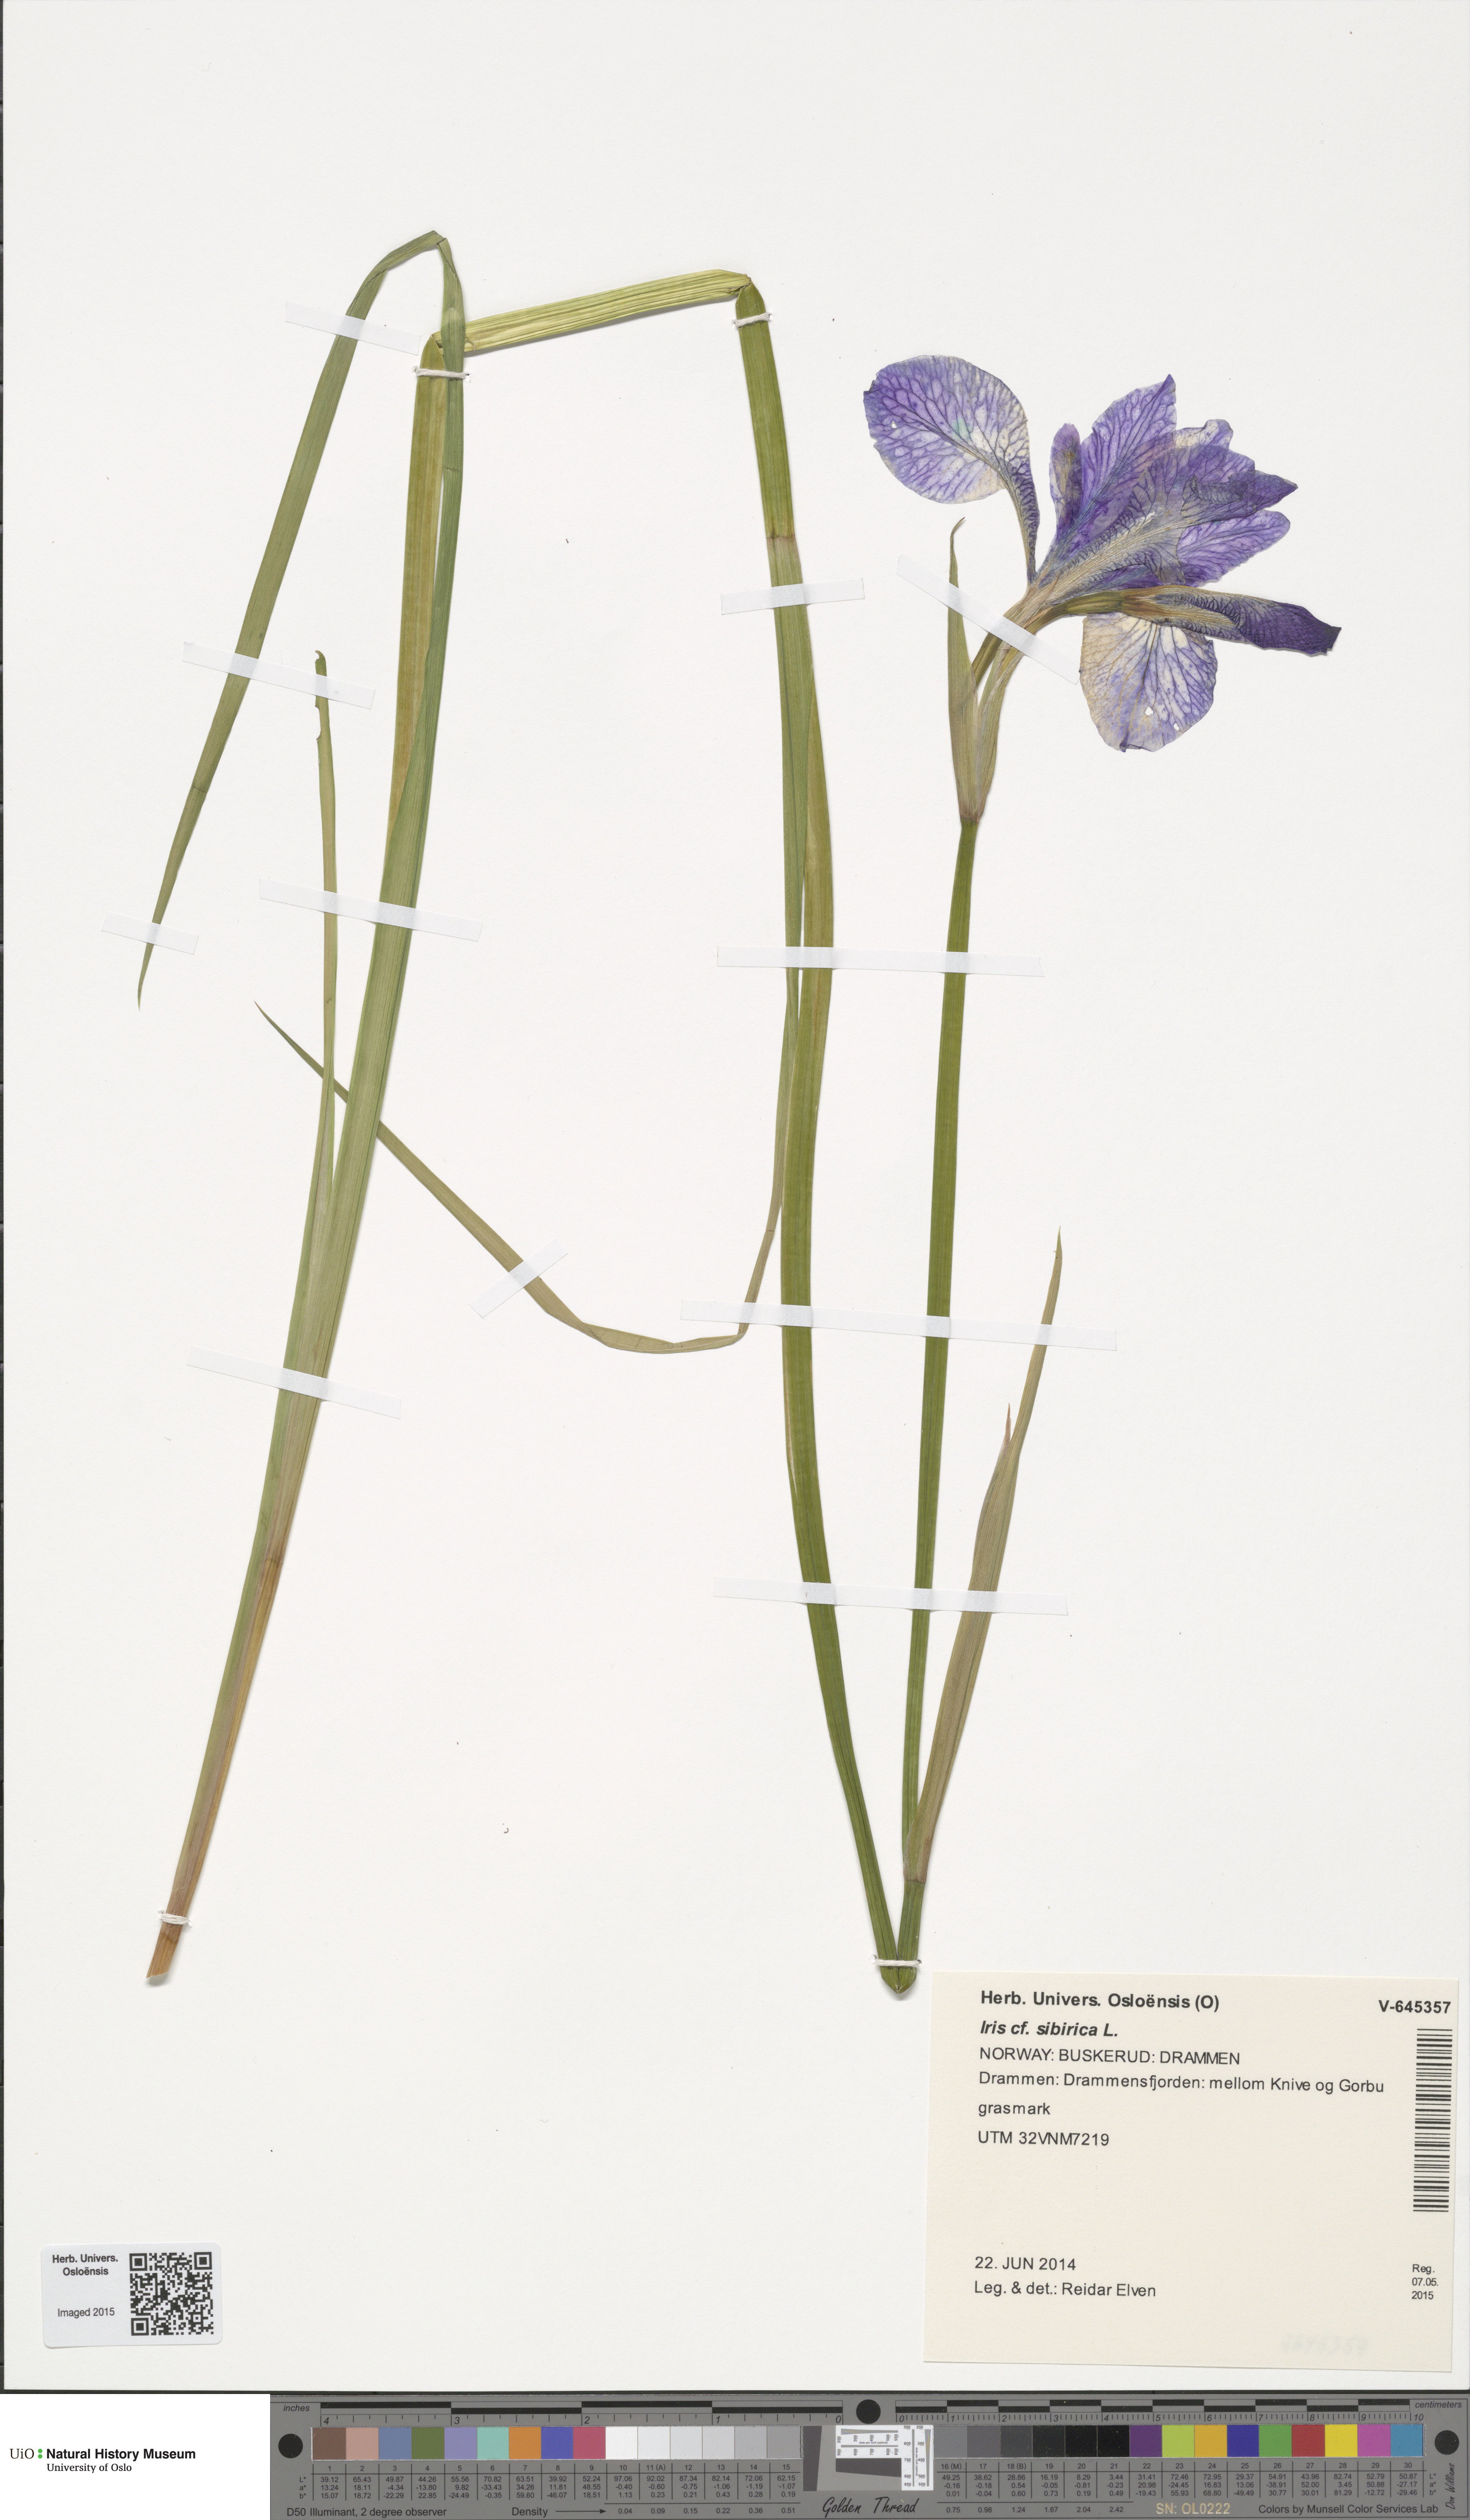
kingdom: Plantae
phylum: Tracheophyta
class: Liliopsida
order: Asparagales
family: Iridaceae
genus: Iris
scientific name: Iris sibirica
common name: Siberian iris
